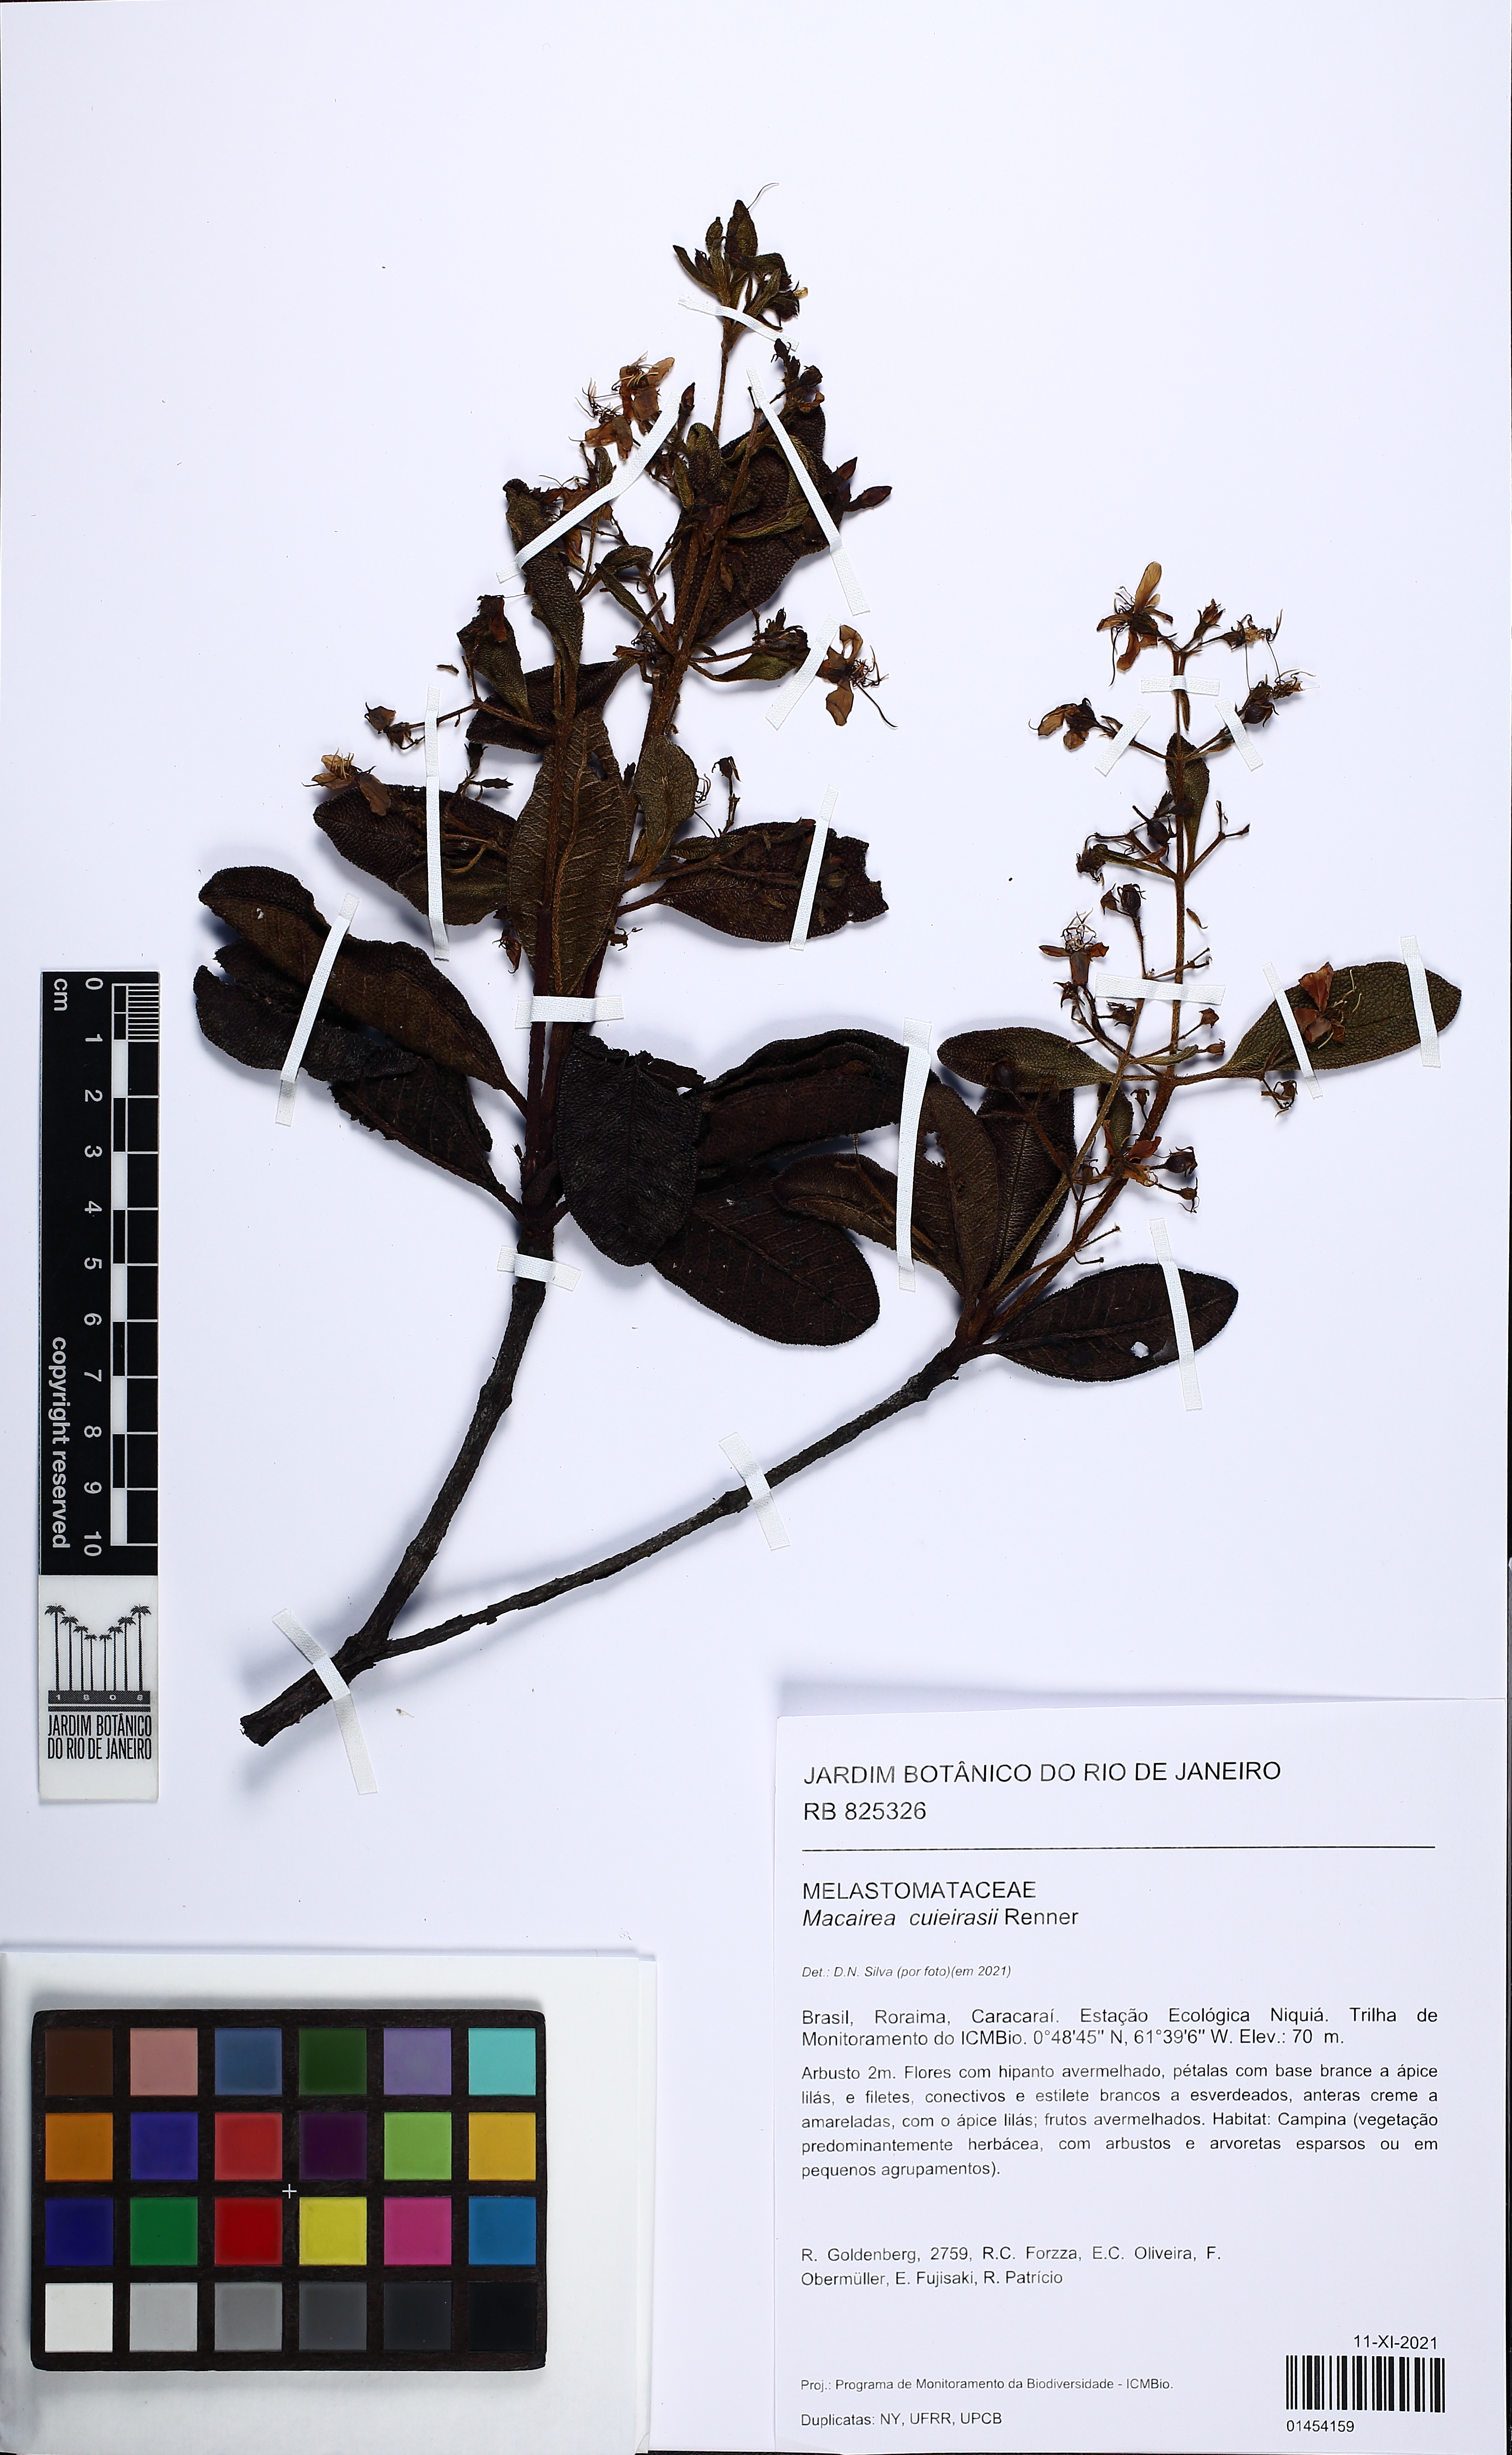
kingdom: Plantae
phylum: Tracheophyta
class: Magnoliopsida
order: Myrtales
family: Melastomataceae
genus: Macairea
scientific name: Macairea cuieirasii
